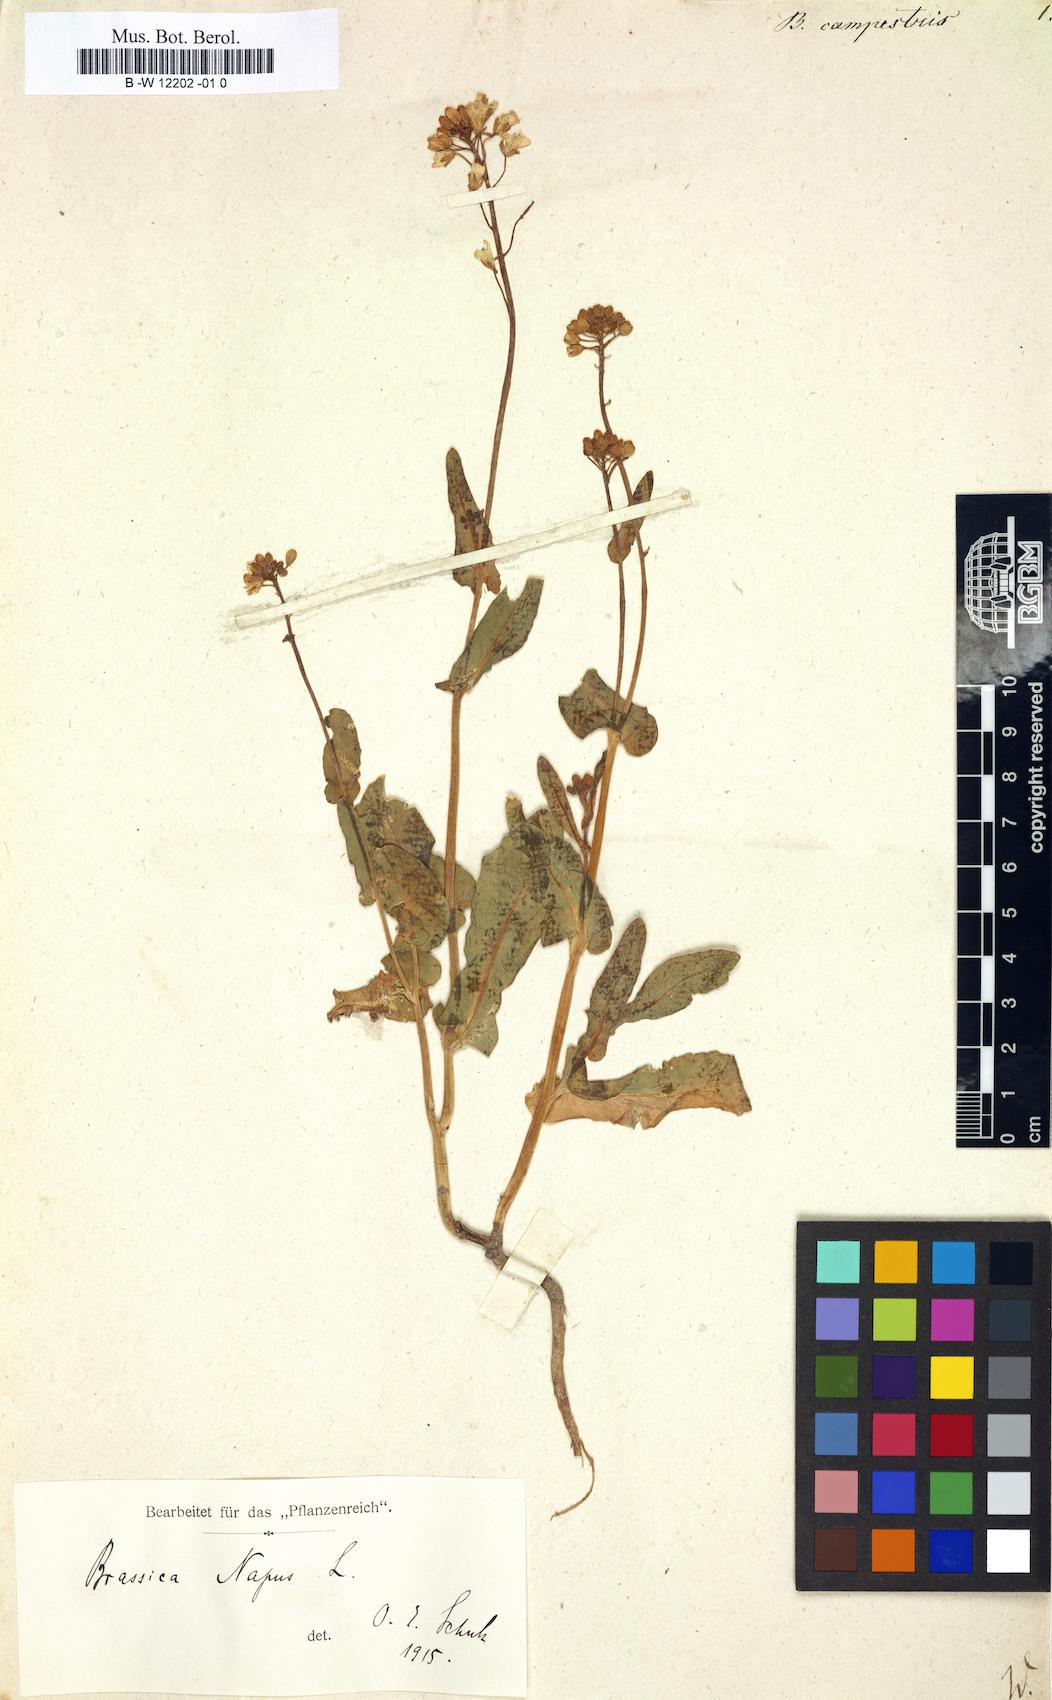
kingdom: Plantae
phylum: Tracheophyta
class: Magnoliopsida
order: Brassicales
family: Brassicaceae
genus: Brassica
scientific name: Brassica campestris
